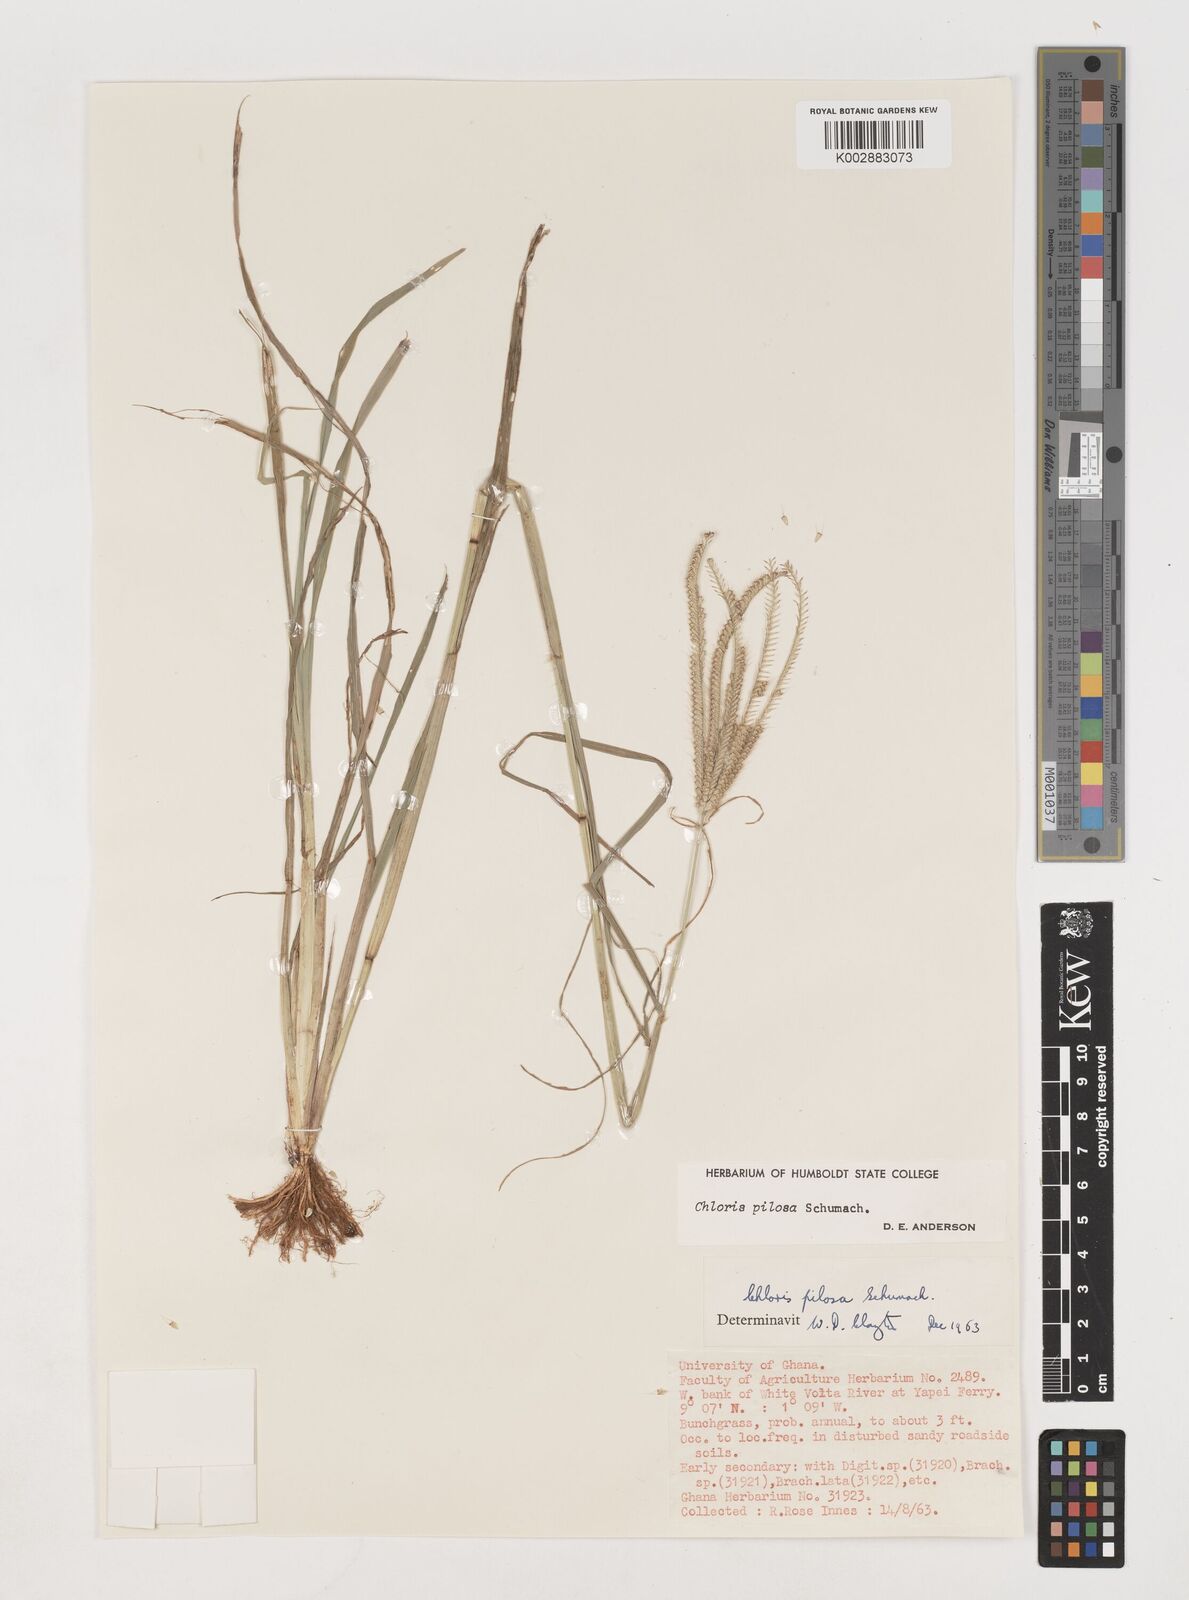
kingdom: Plantae
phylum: Tracheophyta
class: Liliopsida
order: Poales
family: Poaceae
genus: Chloris
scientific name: Chloris pilosa
